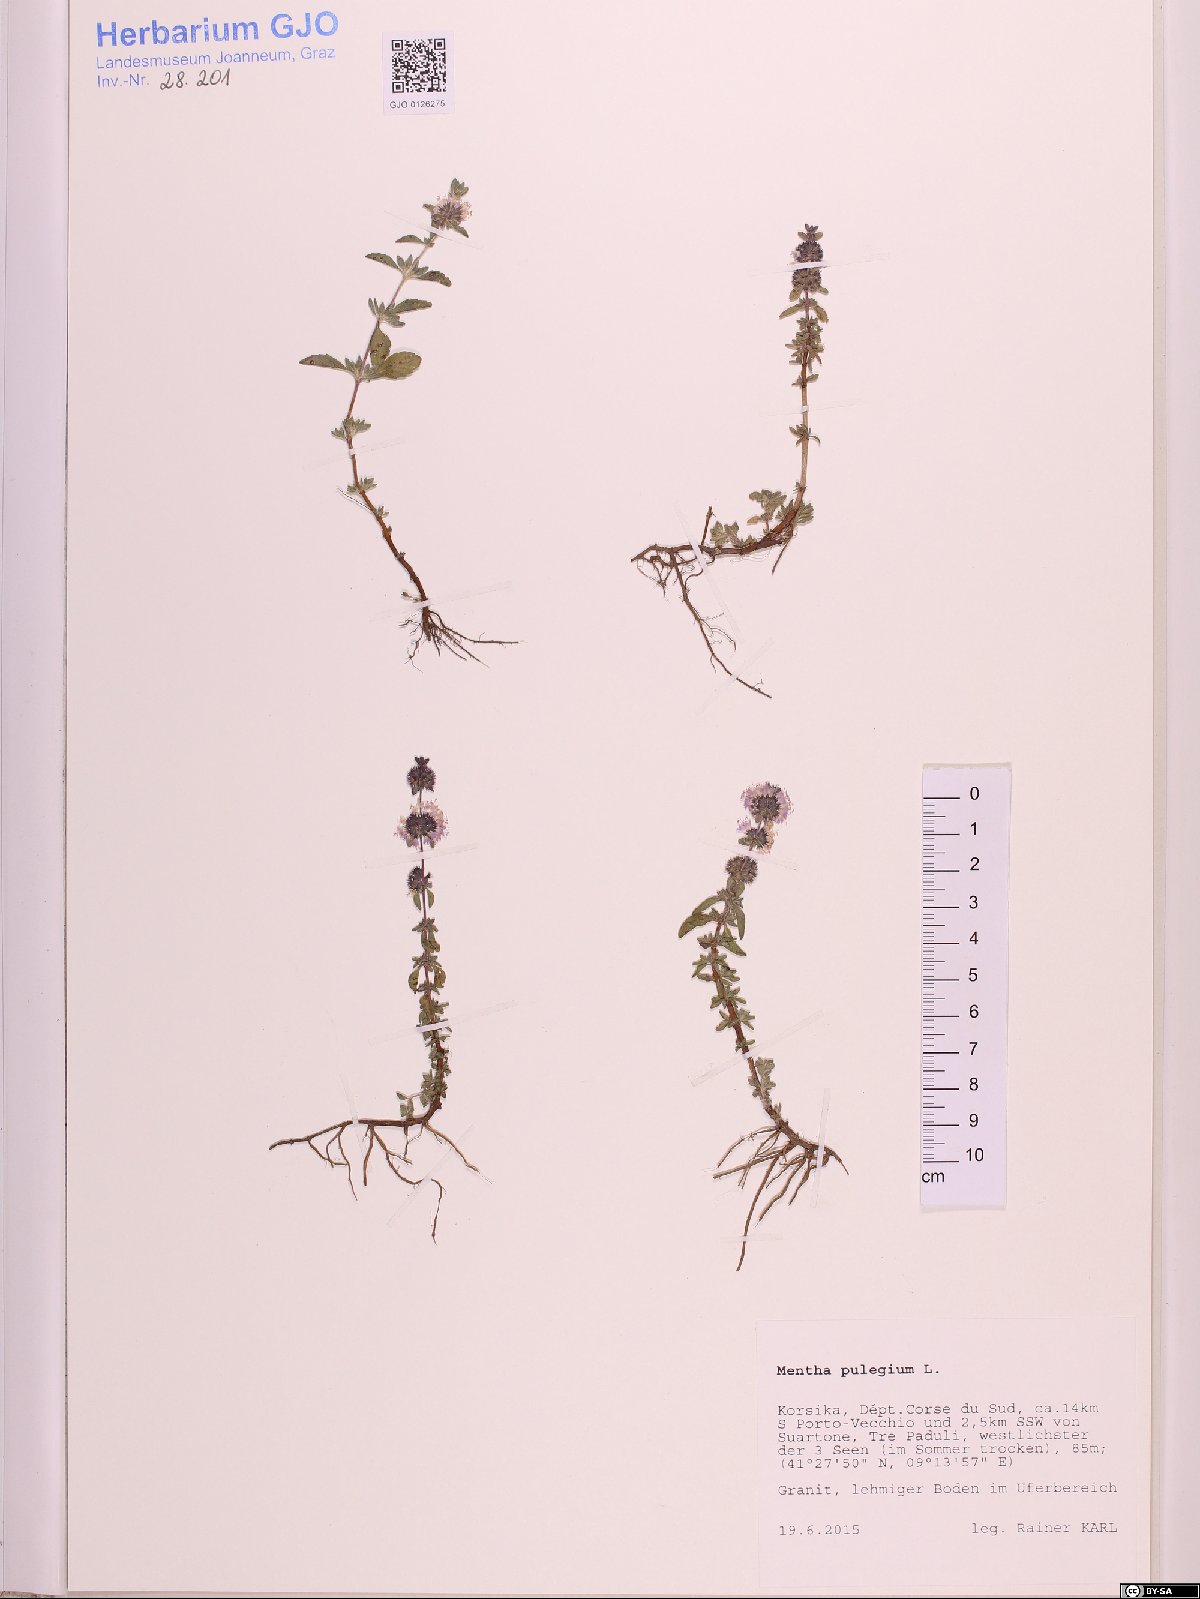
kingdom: Plantae
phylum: Tracheophyta
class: Magnoliopsida
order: Lamiales
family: Lamiaceae
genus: Mentha
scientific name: Mentha pulegium
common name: Pennyroyal
